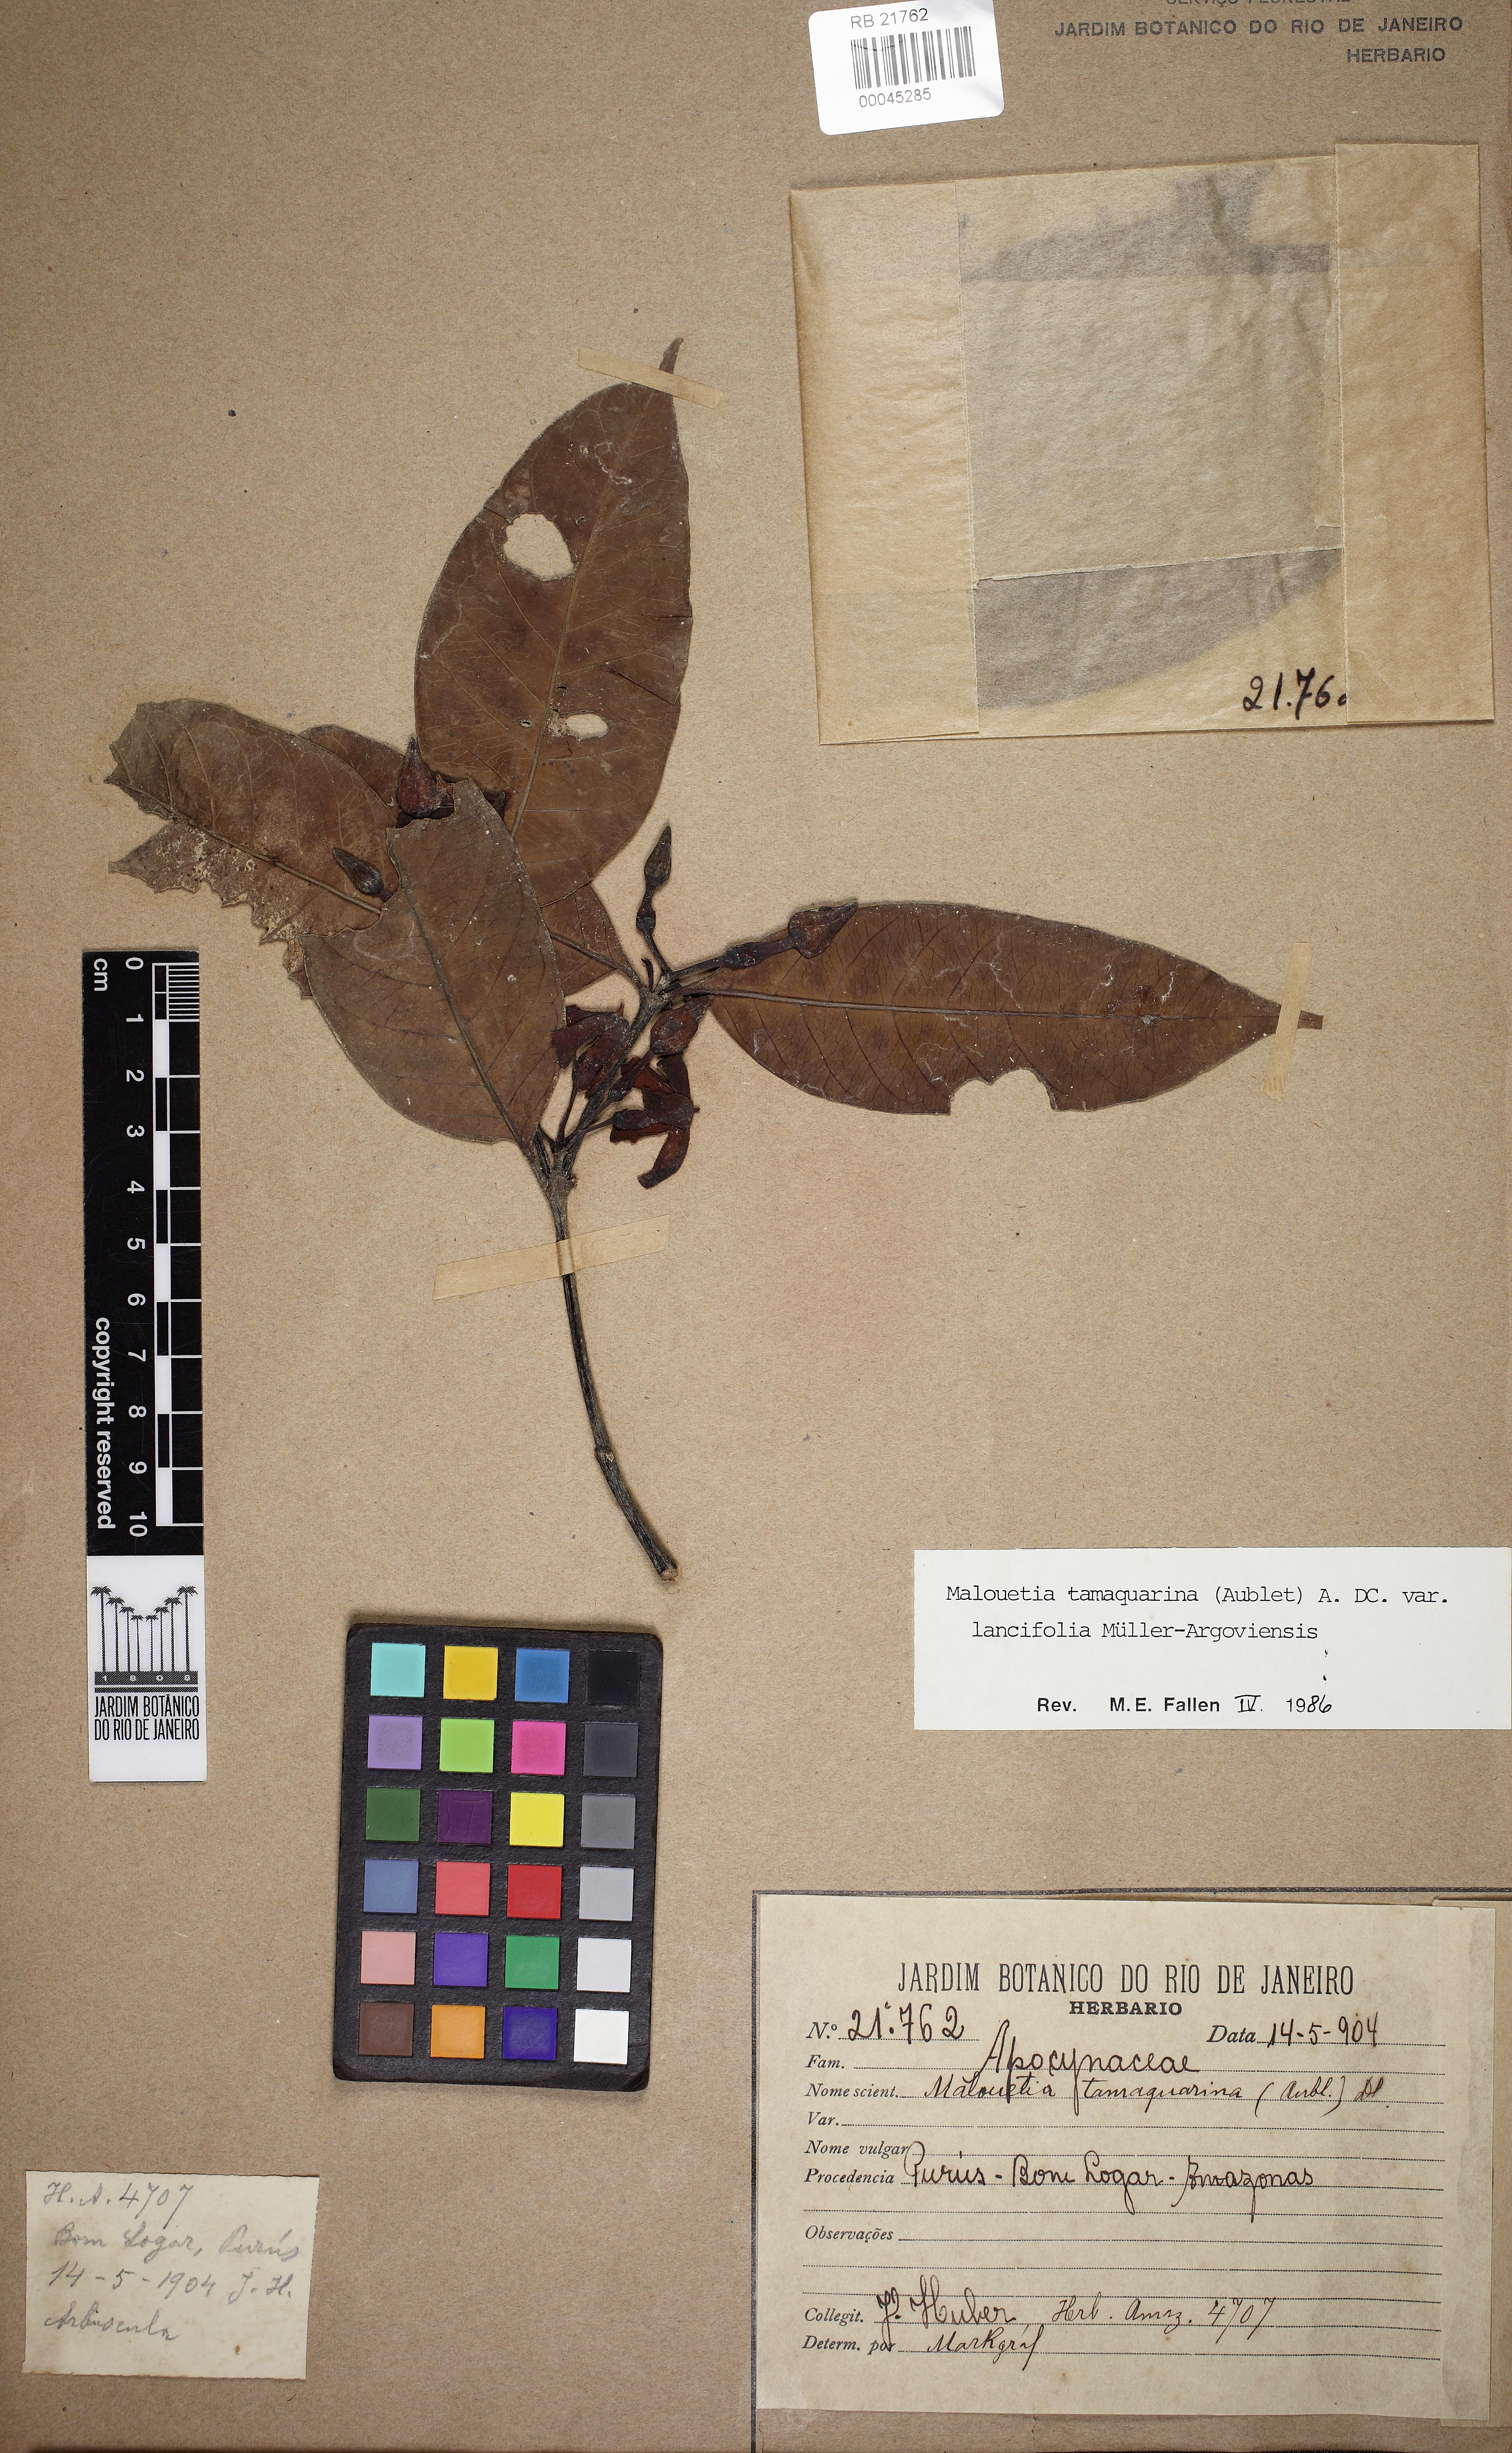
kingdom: Plantae
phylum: Tracheophyta
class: Magnoliopsida
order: Gentianales
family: Apocynaceae
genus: Malouetia
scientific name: Malouetia tamaquarina
